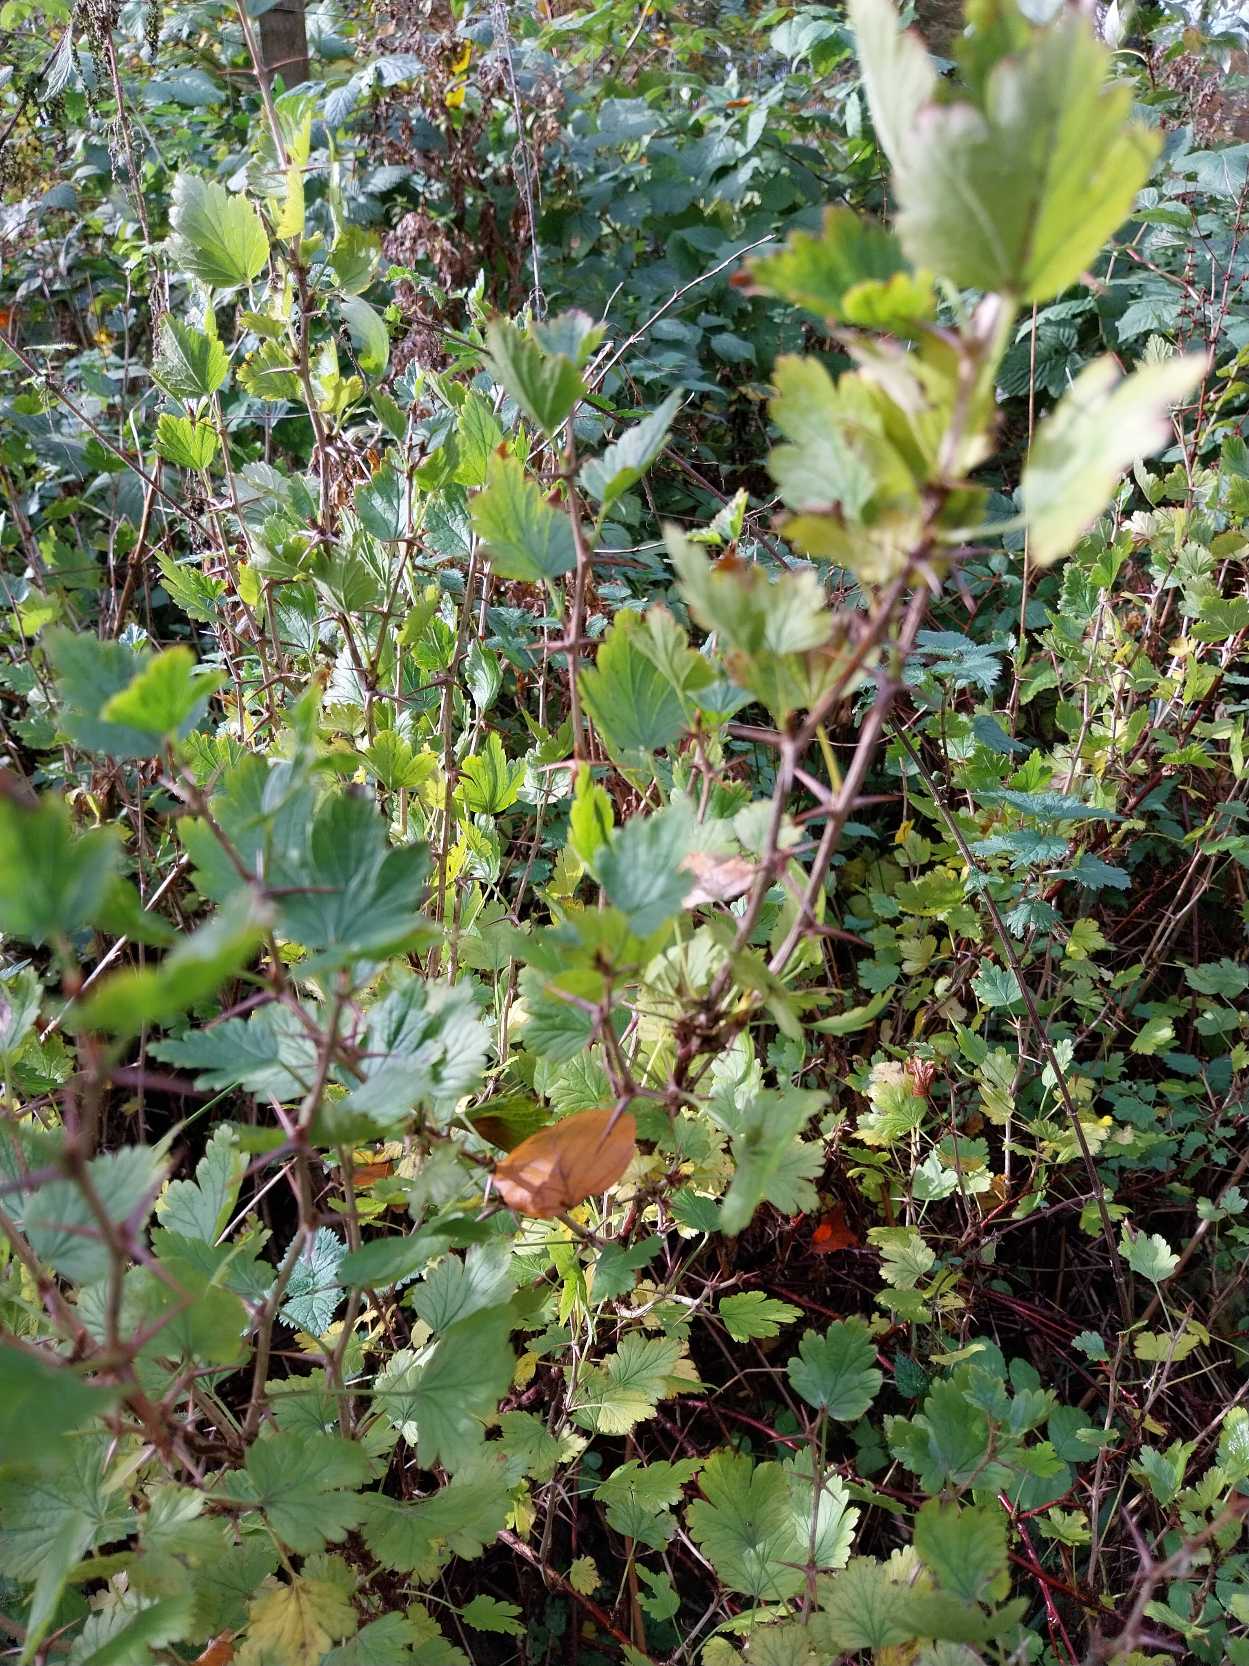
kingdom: Plantae
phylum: Tracheophyta
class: Magnoliopsida
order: Saxifragales
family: Grossulariaceae
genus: Ribes
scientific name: Ribes uva-crispa
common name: Stikkelsbær
